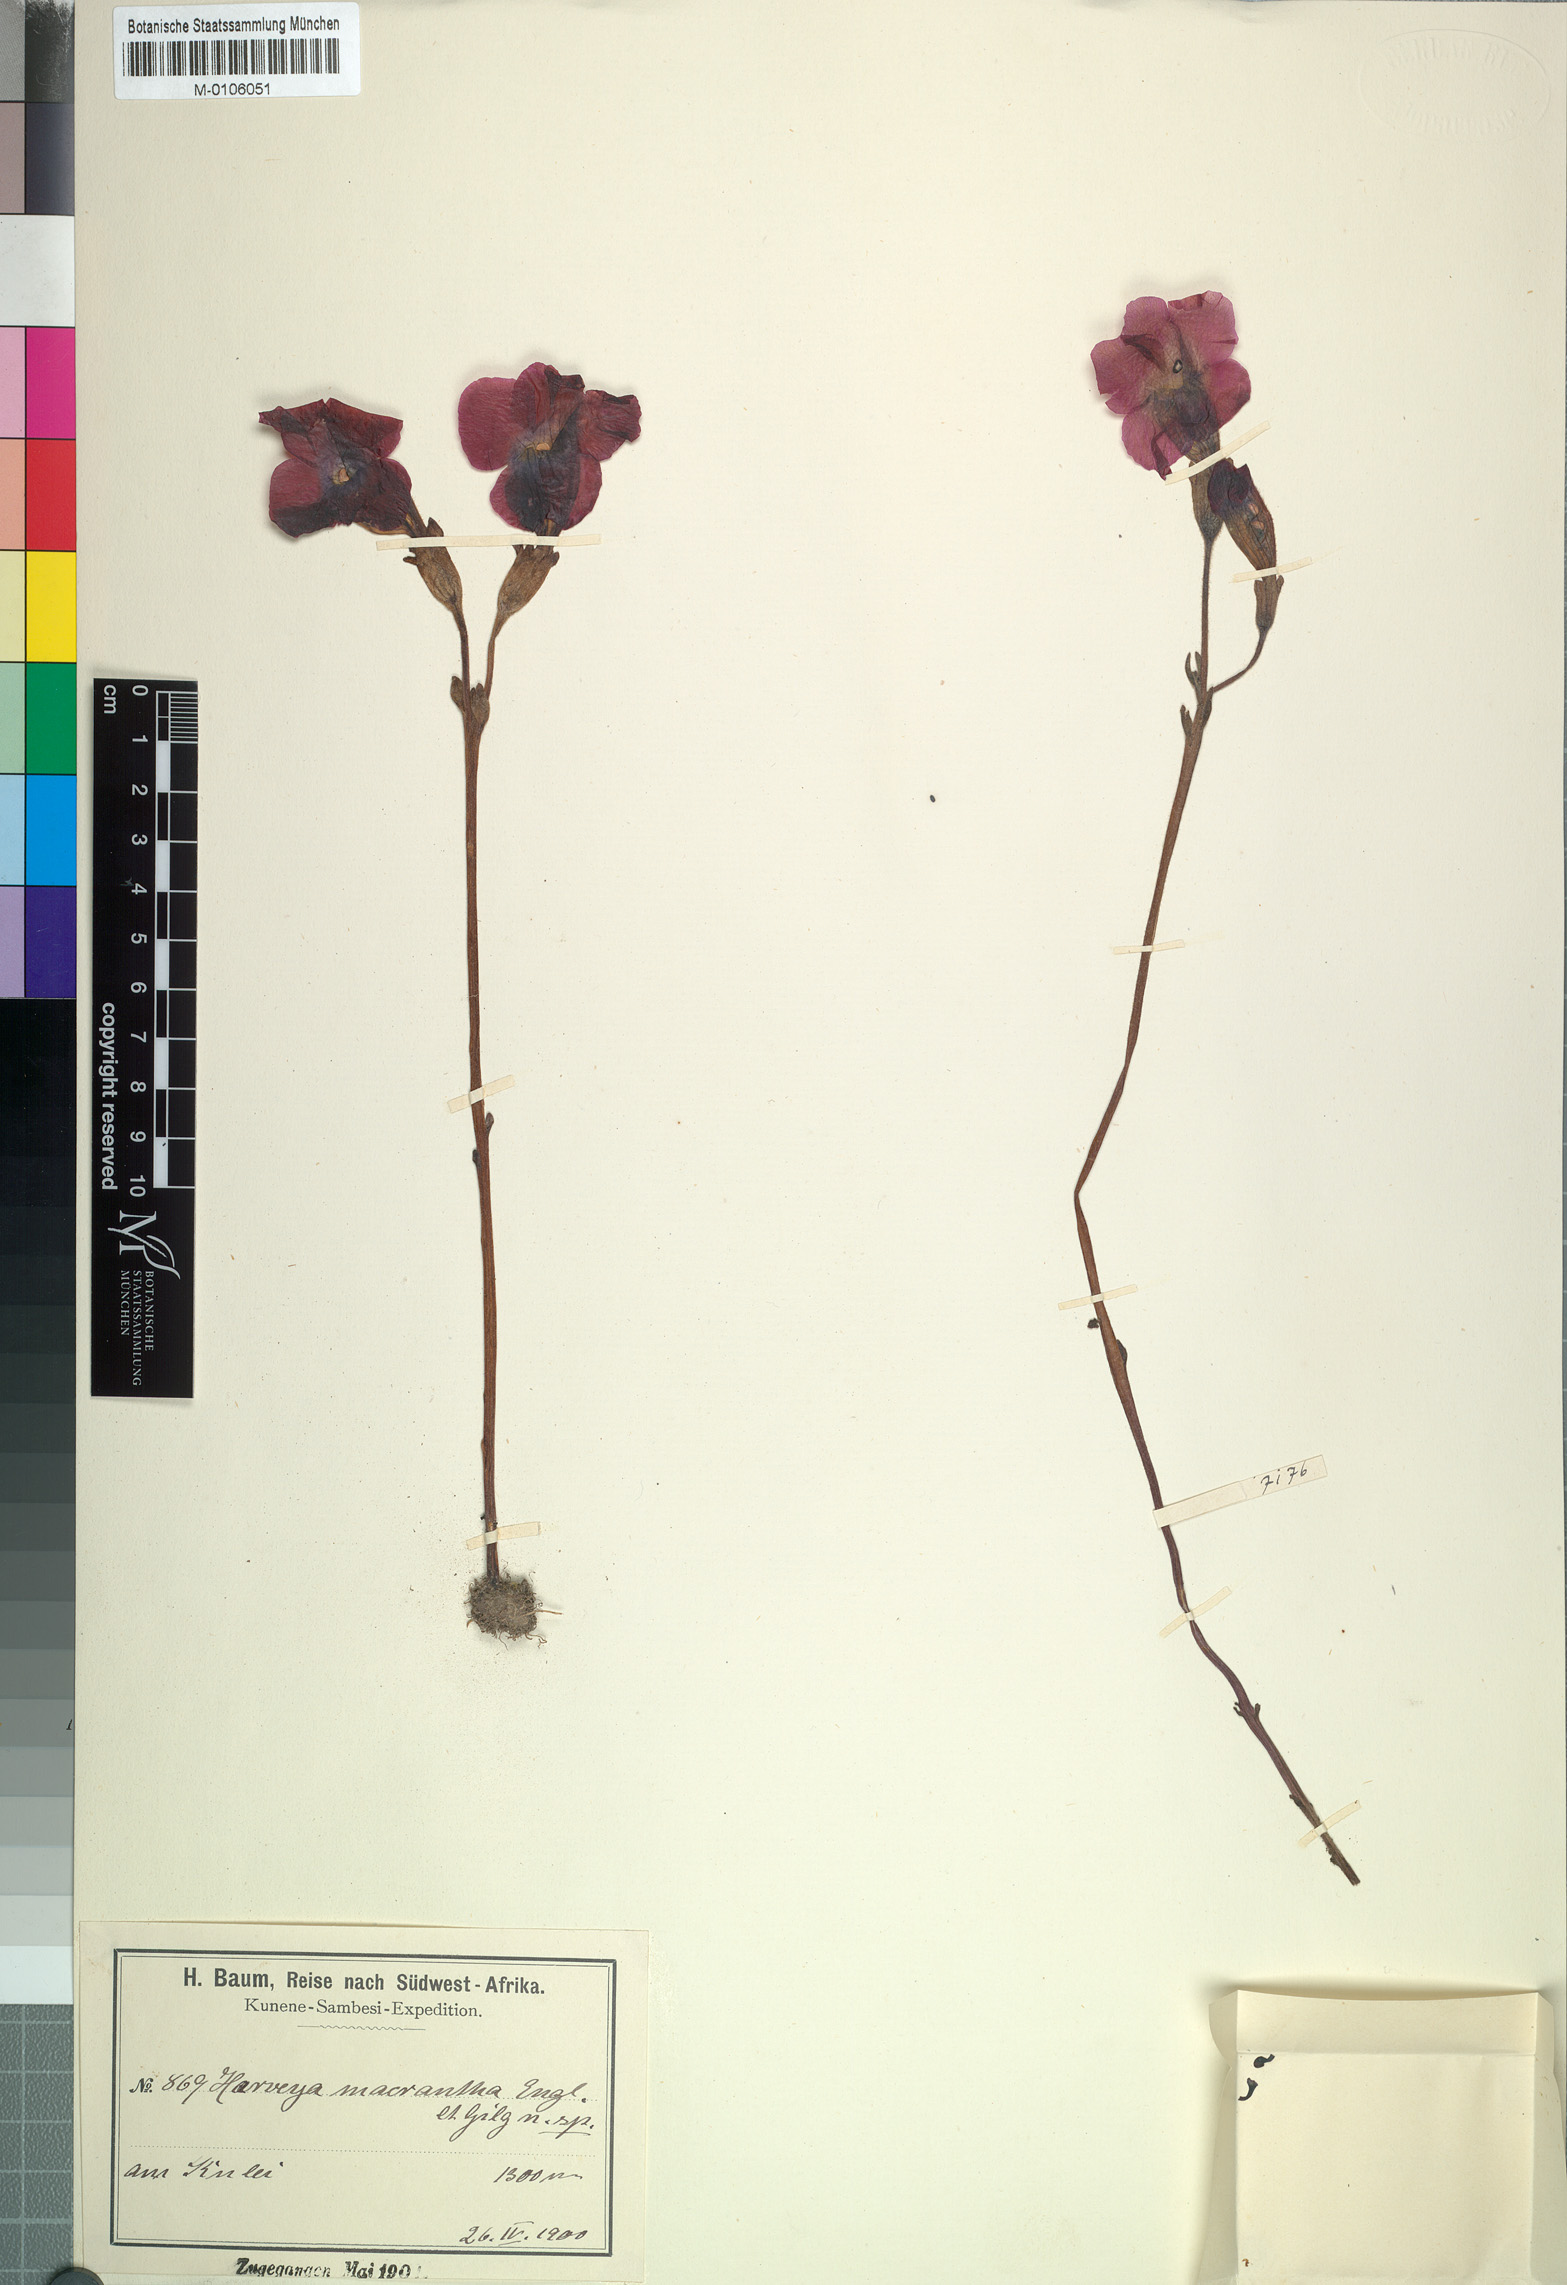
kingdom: Plantae
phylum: Tracheophyta
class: Magnoliopsida
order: Lamiales
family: Orobanchaceae
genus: Harveya
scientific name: Harveya andongensis
